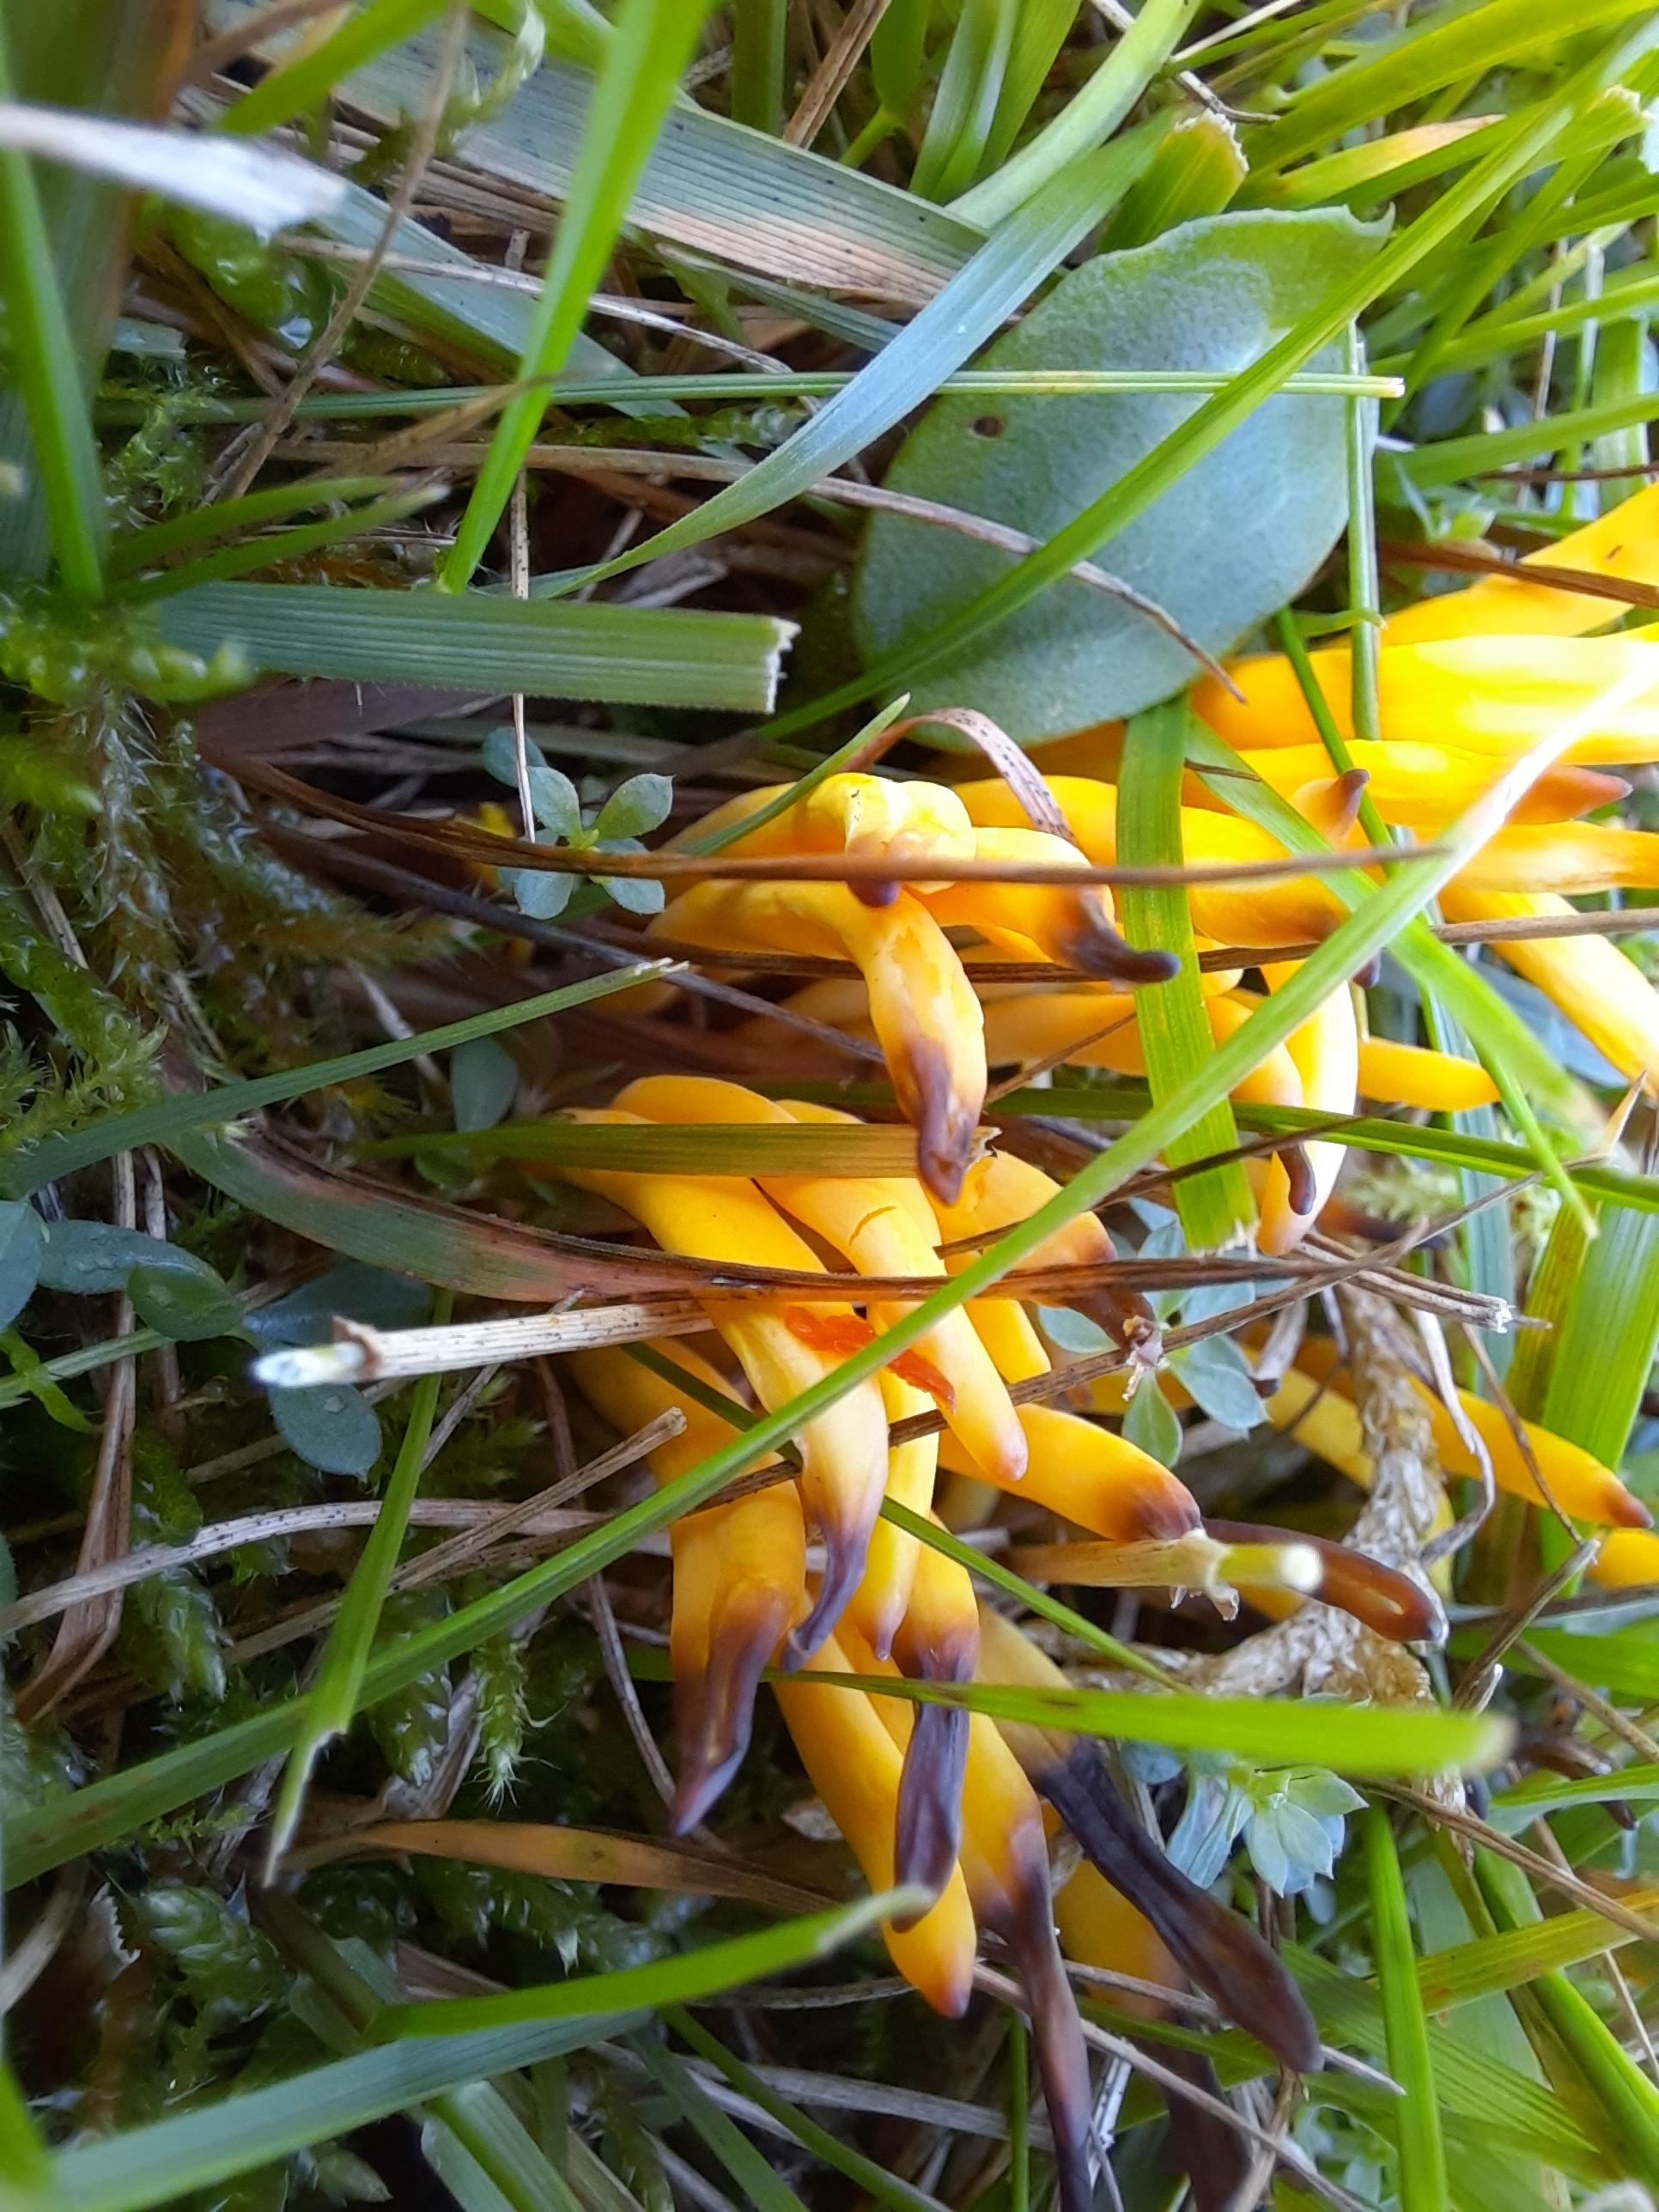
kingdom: Fungi
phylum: Basidiomycota
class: Agaricomycetes
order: Agaricales
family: Clavariaceae
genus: Clavulinopsis
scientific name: Clavulinopsis
